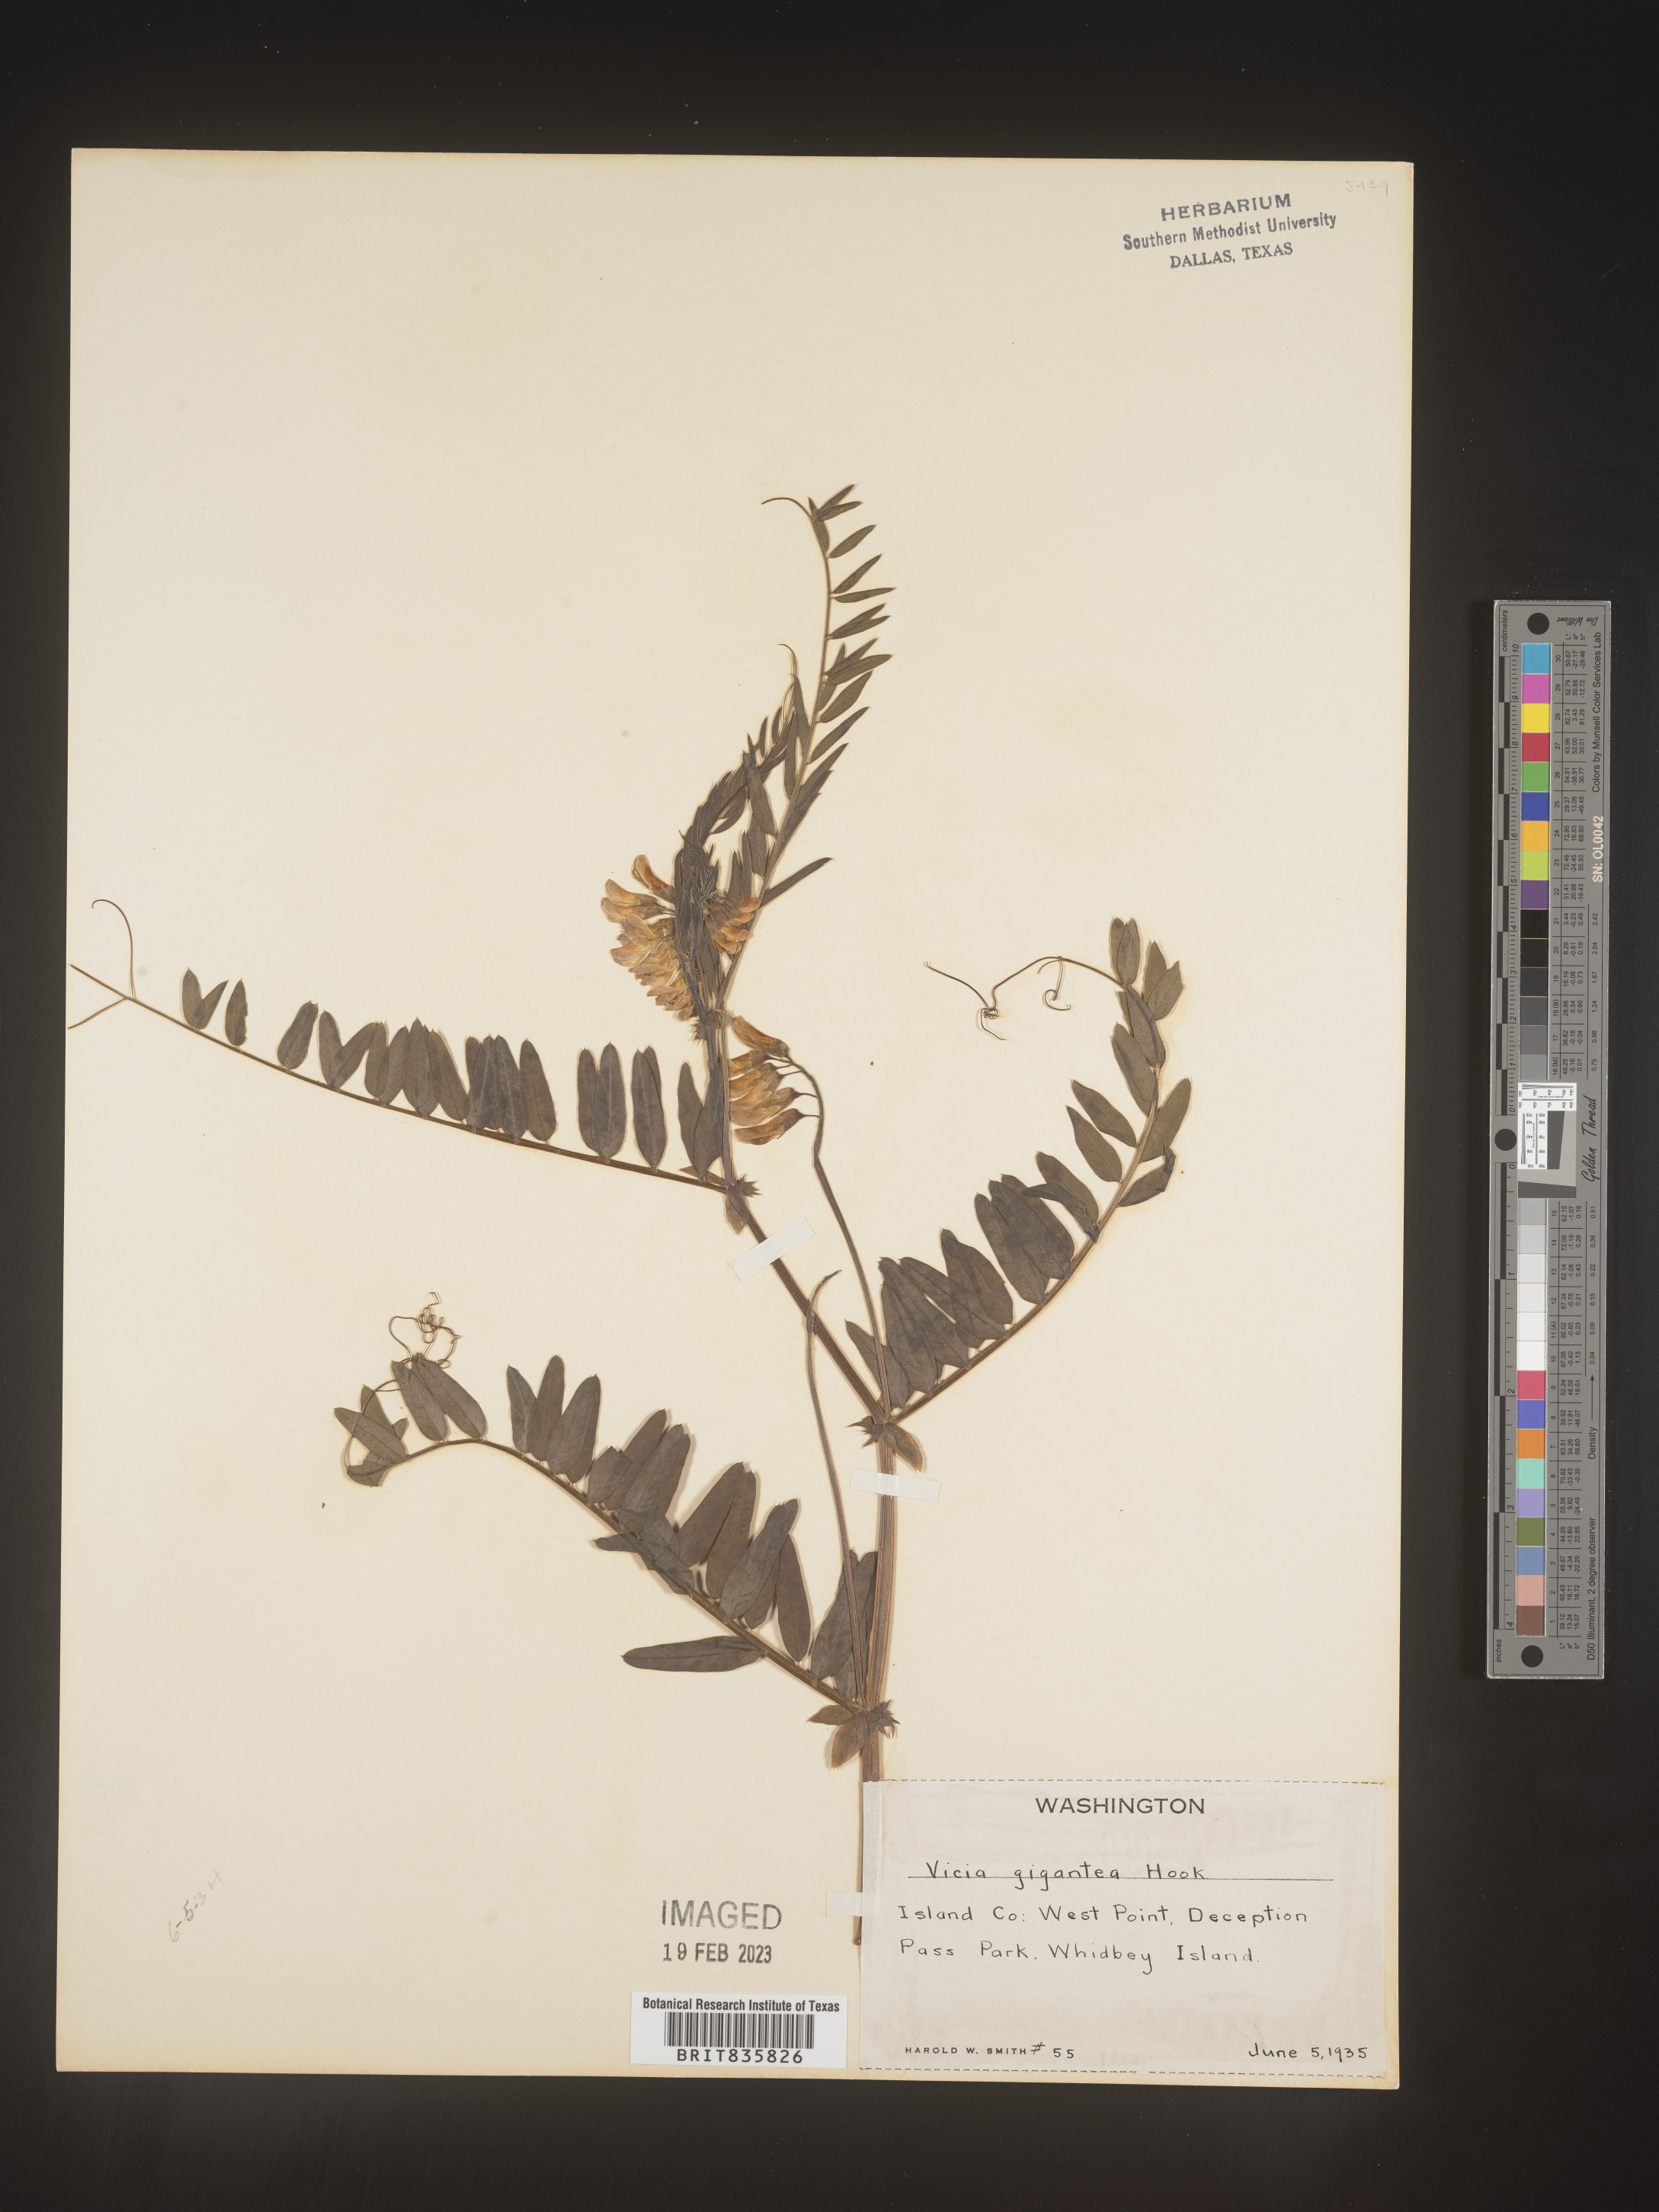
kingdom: Plantae
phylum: Tracheophyta
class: Magnoliopsida
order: Fabales
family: Fabaceae
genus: Vicia
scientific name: Vicia
